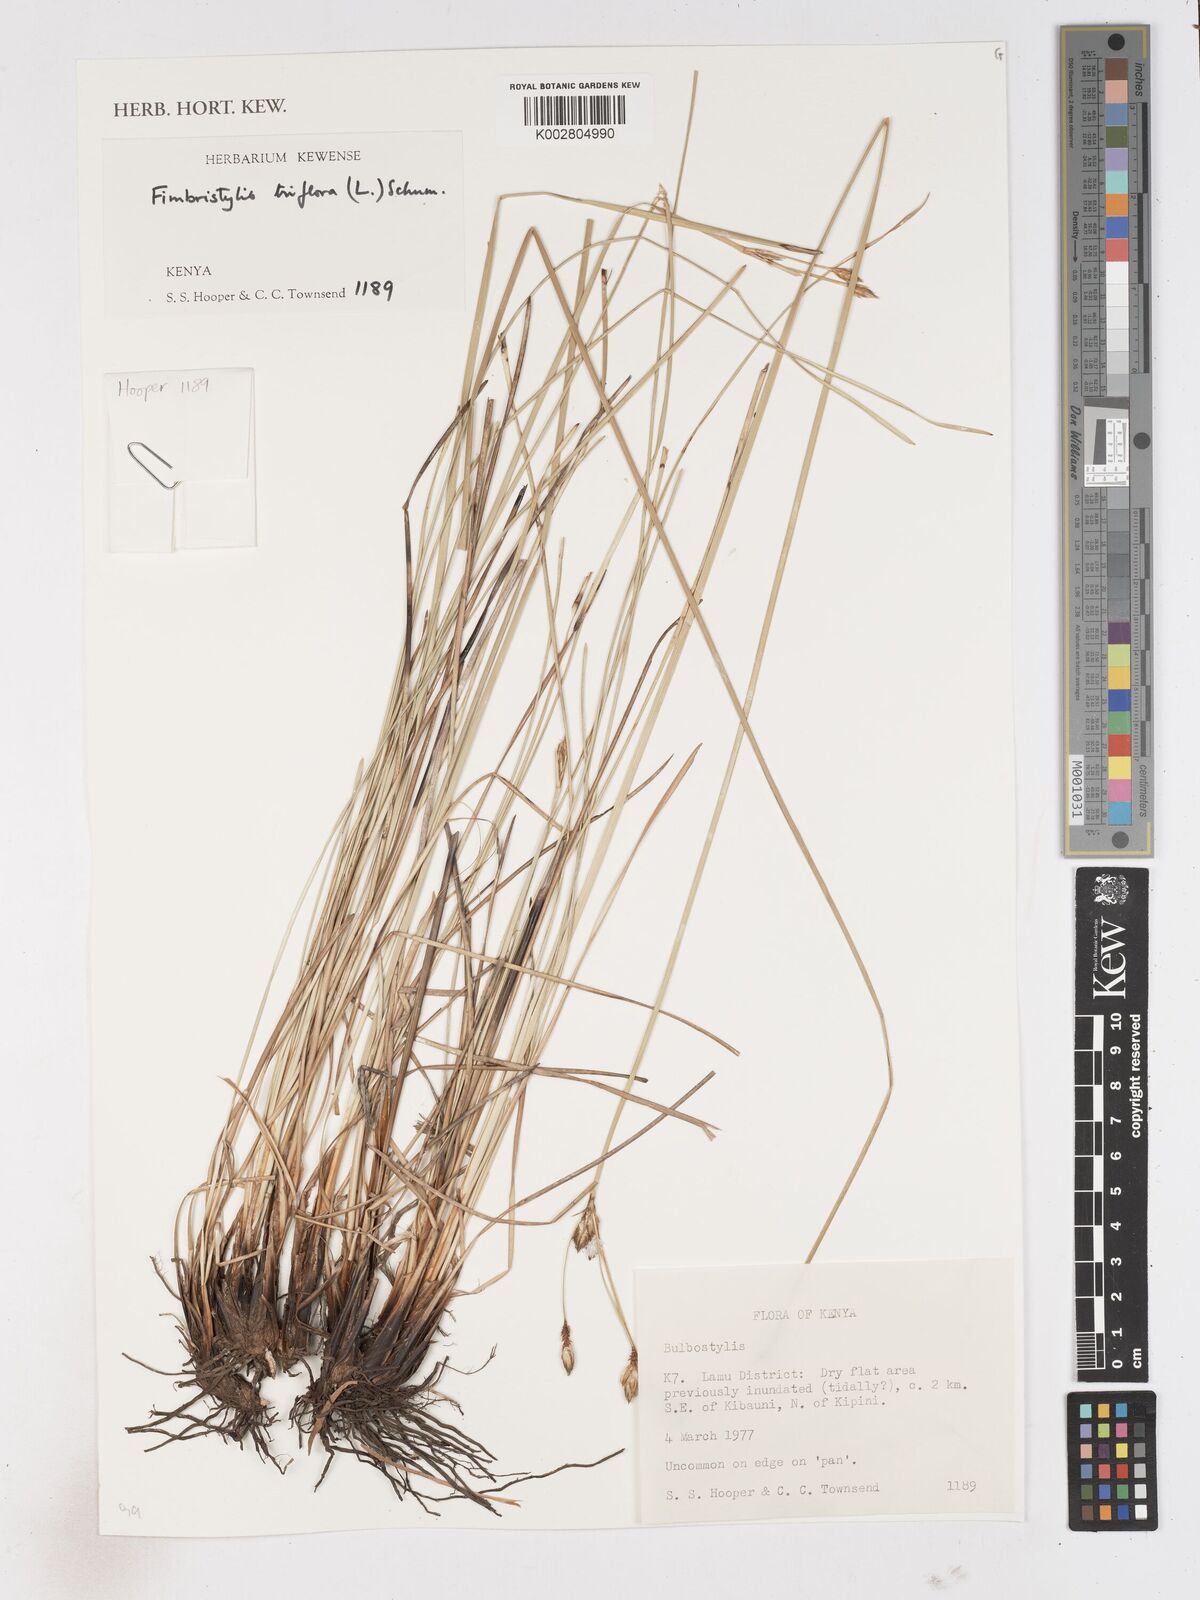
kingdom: Plantae
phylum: Tracheophyta
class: Liliopsida
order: Poales
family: Cyperaceae
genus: Abildgaardia
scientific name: Abildgaardia triflora
